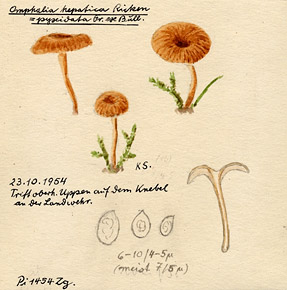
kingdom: Fungi
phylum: Basidiomycota
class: Agaricomycetes
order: Agaricales
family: Tricholomataceae
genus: Omphalina
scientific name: Omphalina subhepatica
